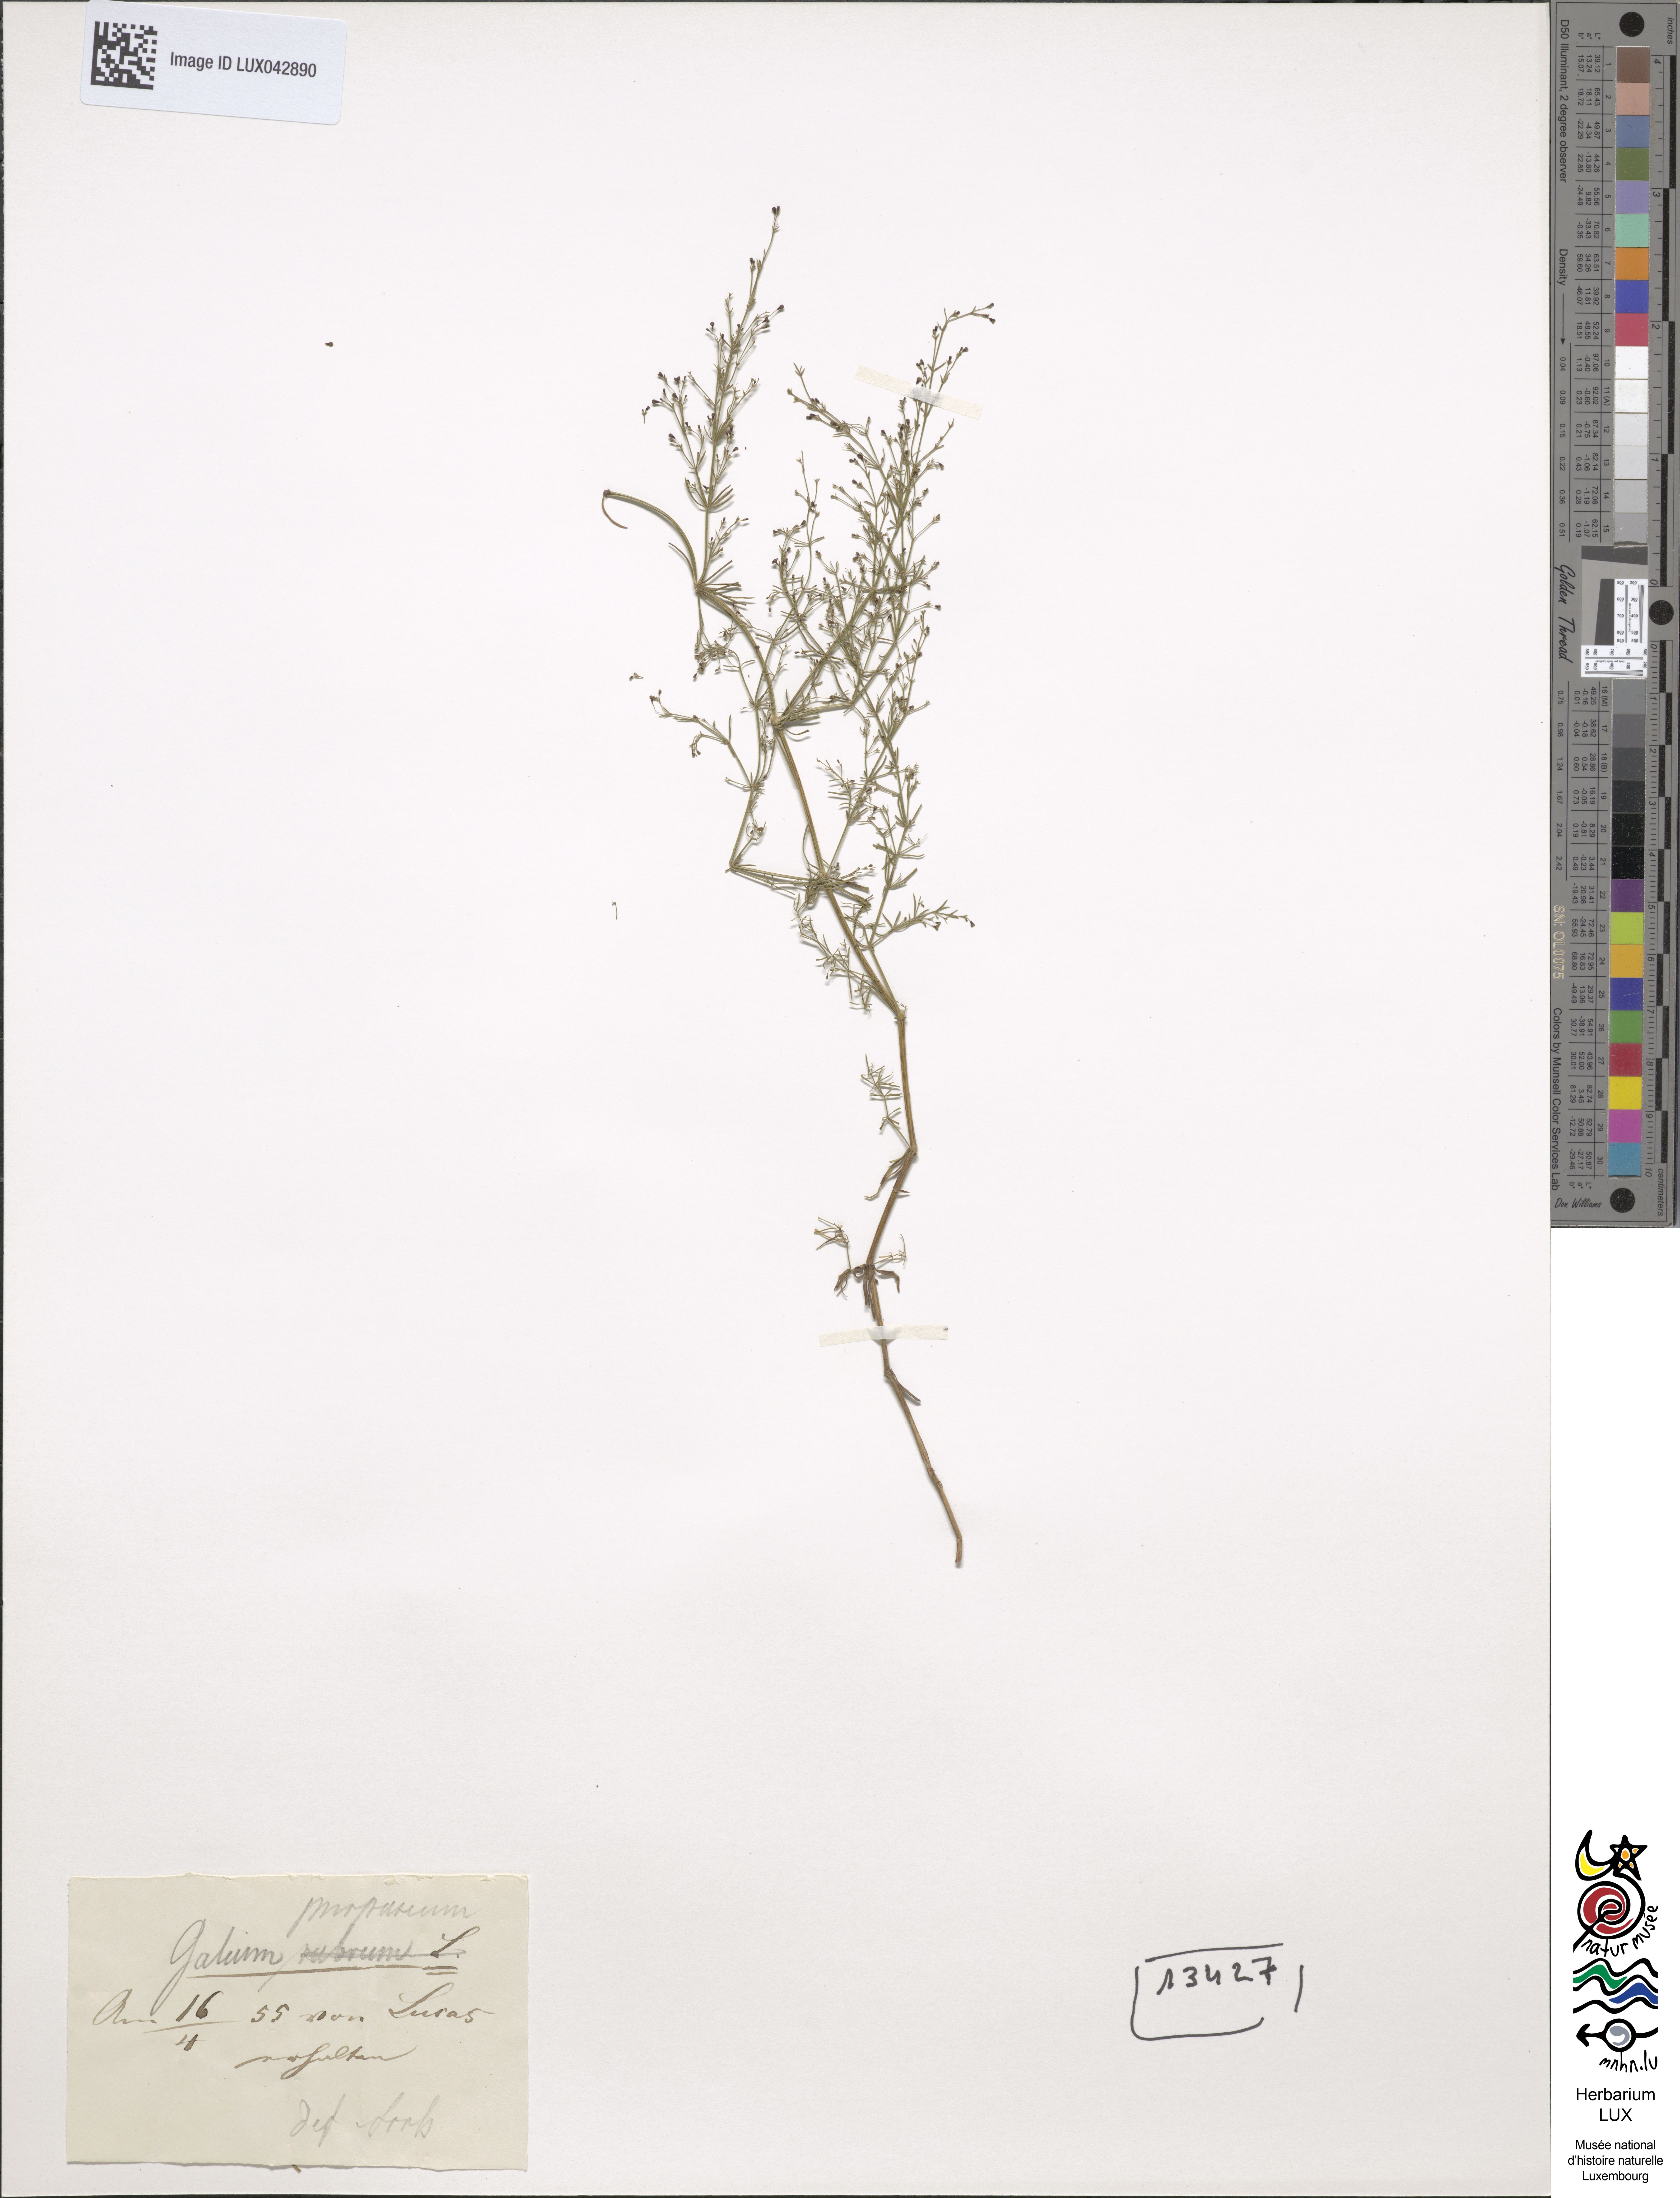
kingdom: Plantae
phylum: Tracheophyta
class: Magnoliopsida
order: Gentianales
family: Rubiaceae
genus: Thliphthisa
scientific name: Thliphthisa purpurea
